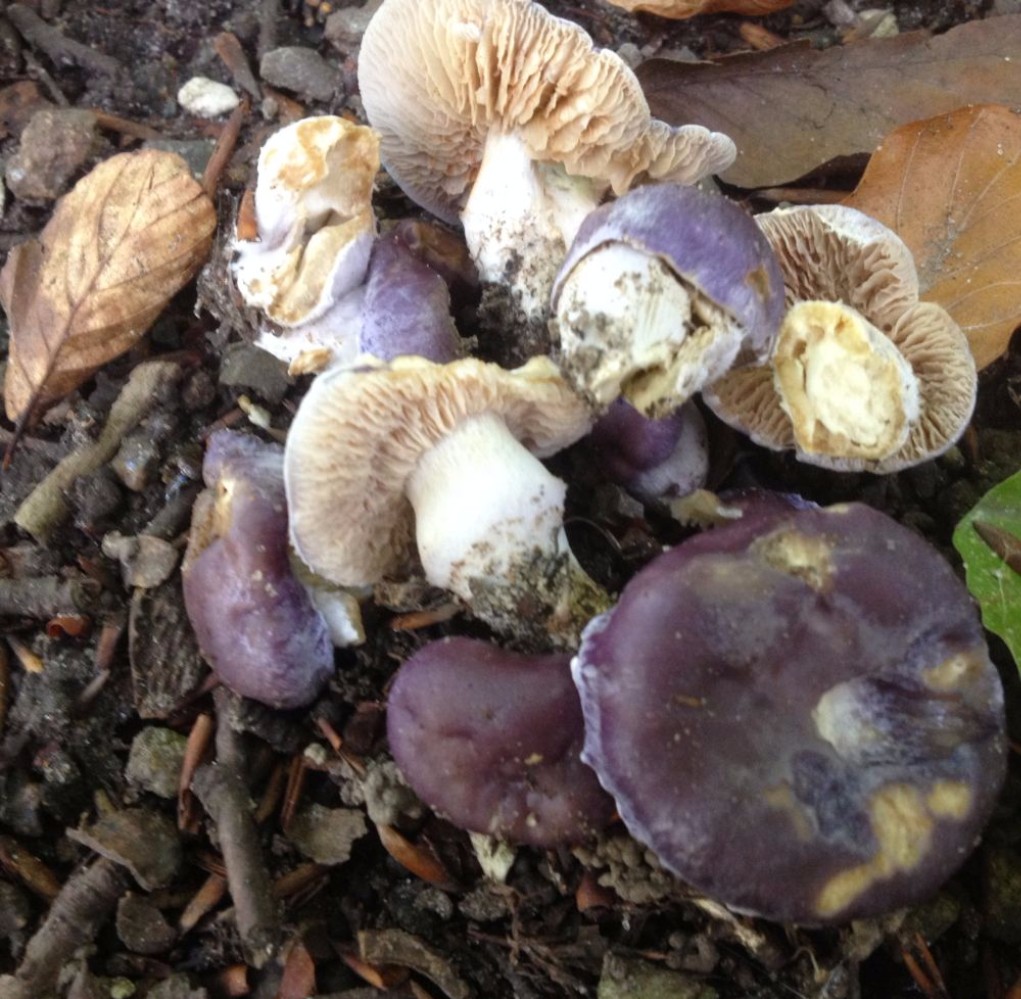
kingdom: Fungi
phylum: Basidiomycota
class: Agaricomycetes
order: Agaricales
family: Cortinariaceae
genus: Thaxterogaster
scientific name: Thaxterogaster croceocoeruleus
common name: blågullig slørhat
